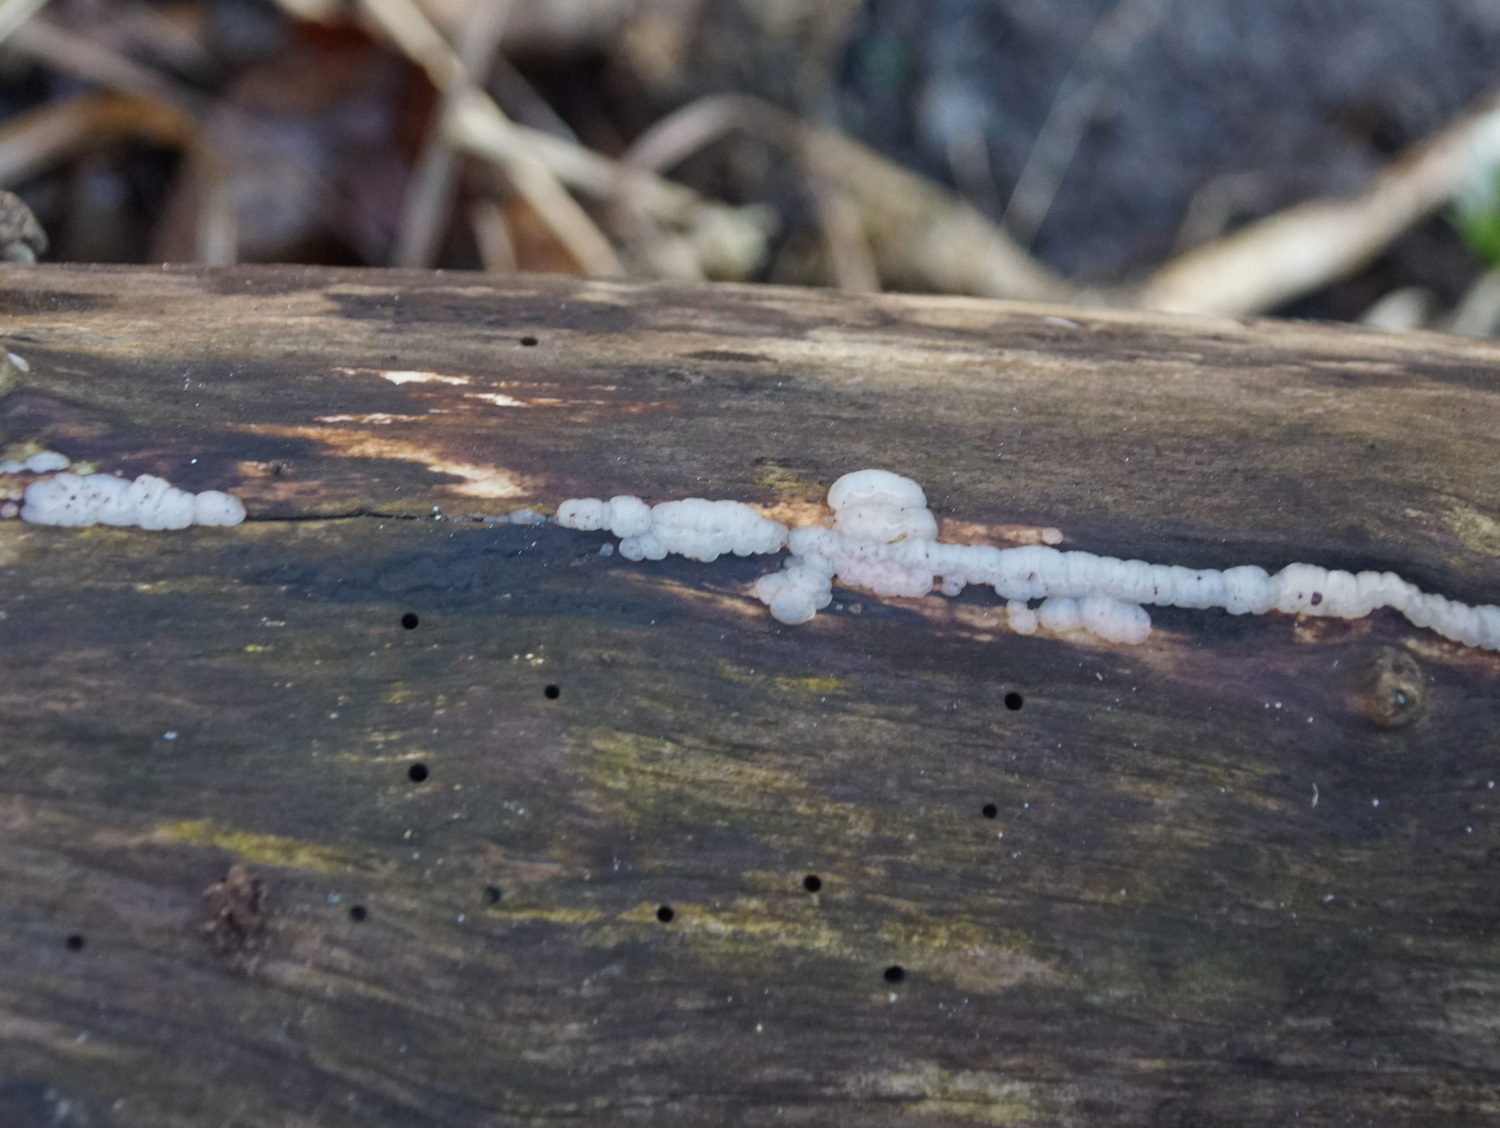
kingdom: Fungi
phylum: Basidiomycota
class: Agaricomycetes
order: Auriculariales
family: Auriculariaceae
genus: Exidia
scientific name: Exidia thuretiana
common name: hvidlig bævretop
